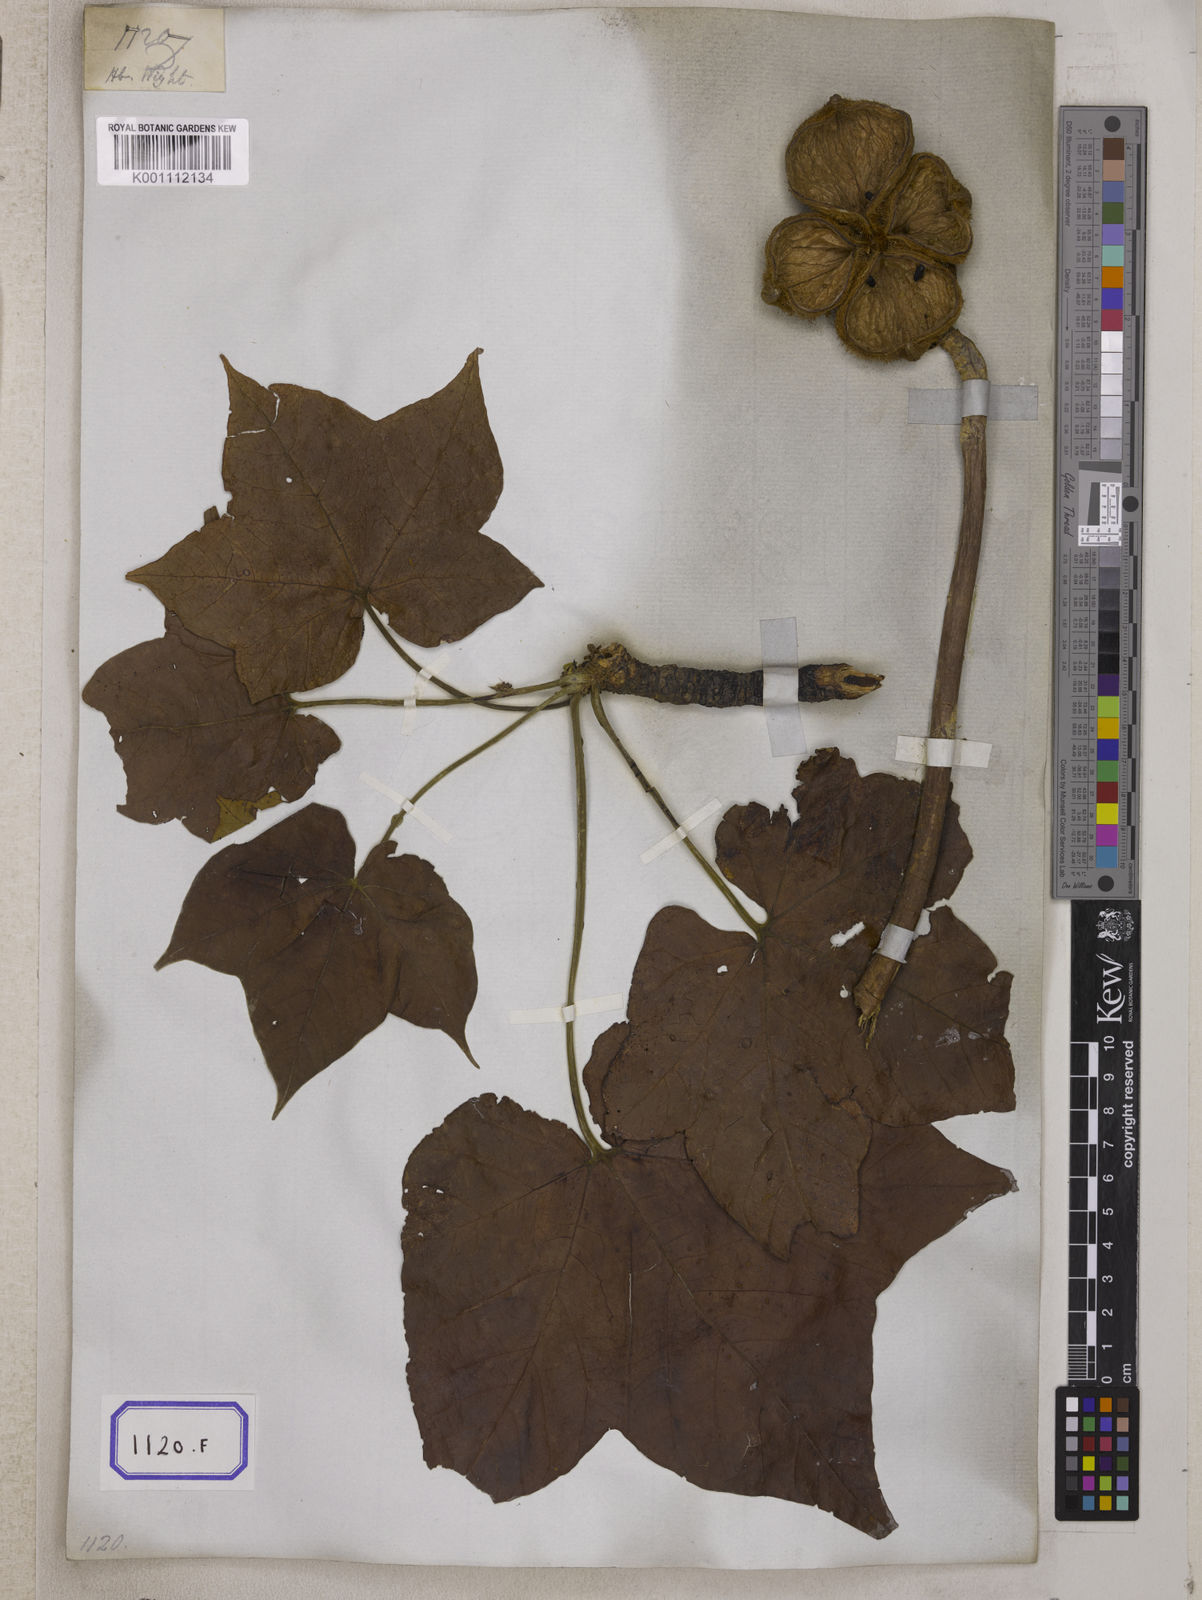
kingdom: Plantae
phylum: Tracheophyta
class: Magnoliopsida
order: Malvales
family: Malvaceae
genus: Sterculia
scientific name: Sterculia urens
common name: Indian-tragacanth
